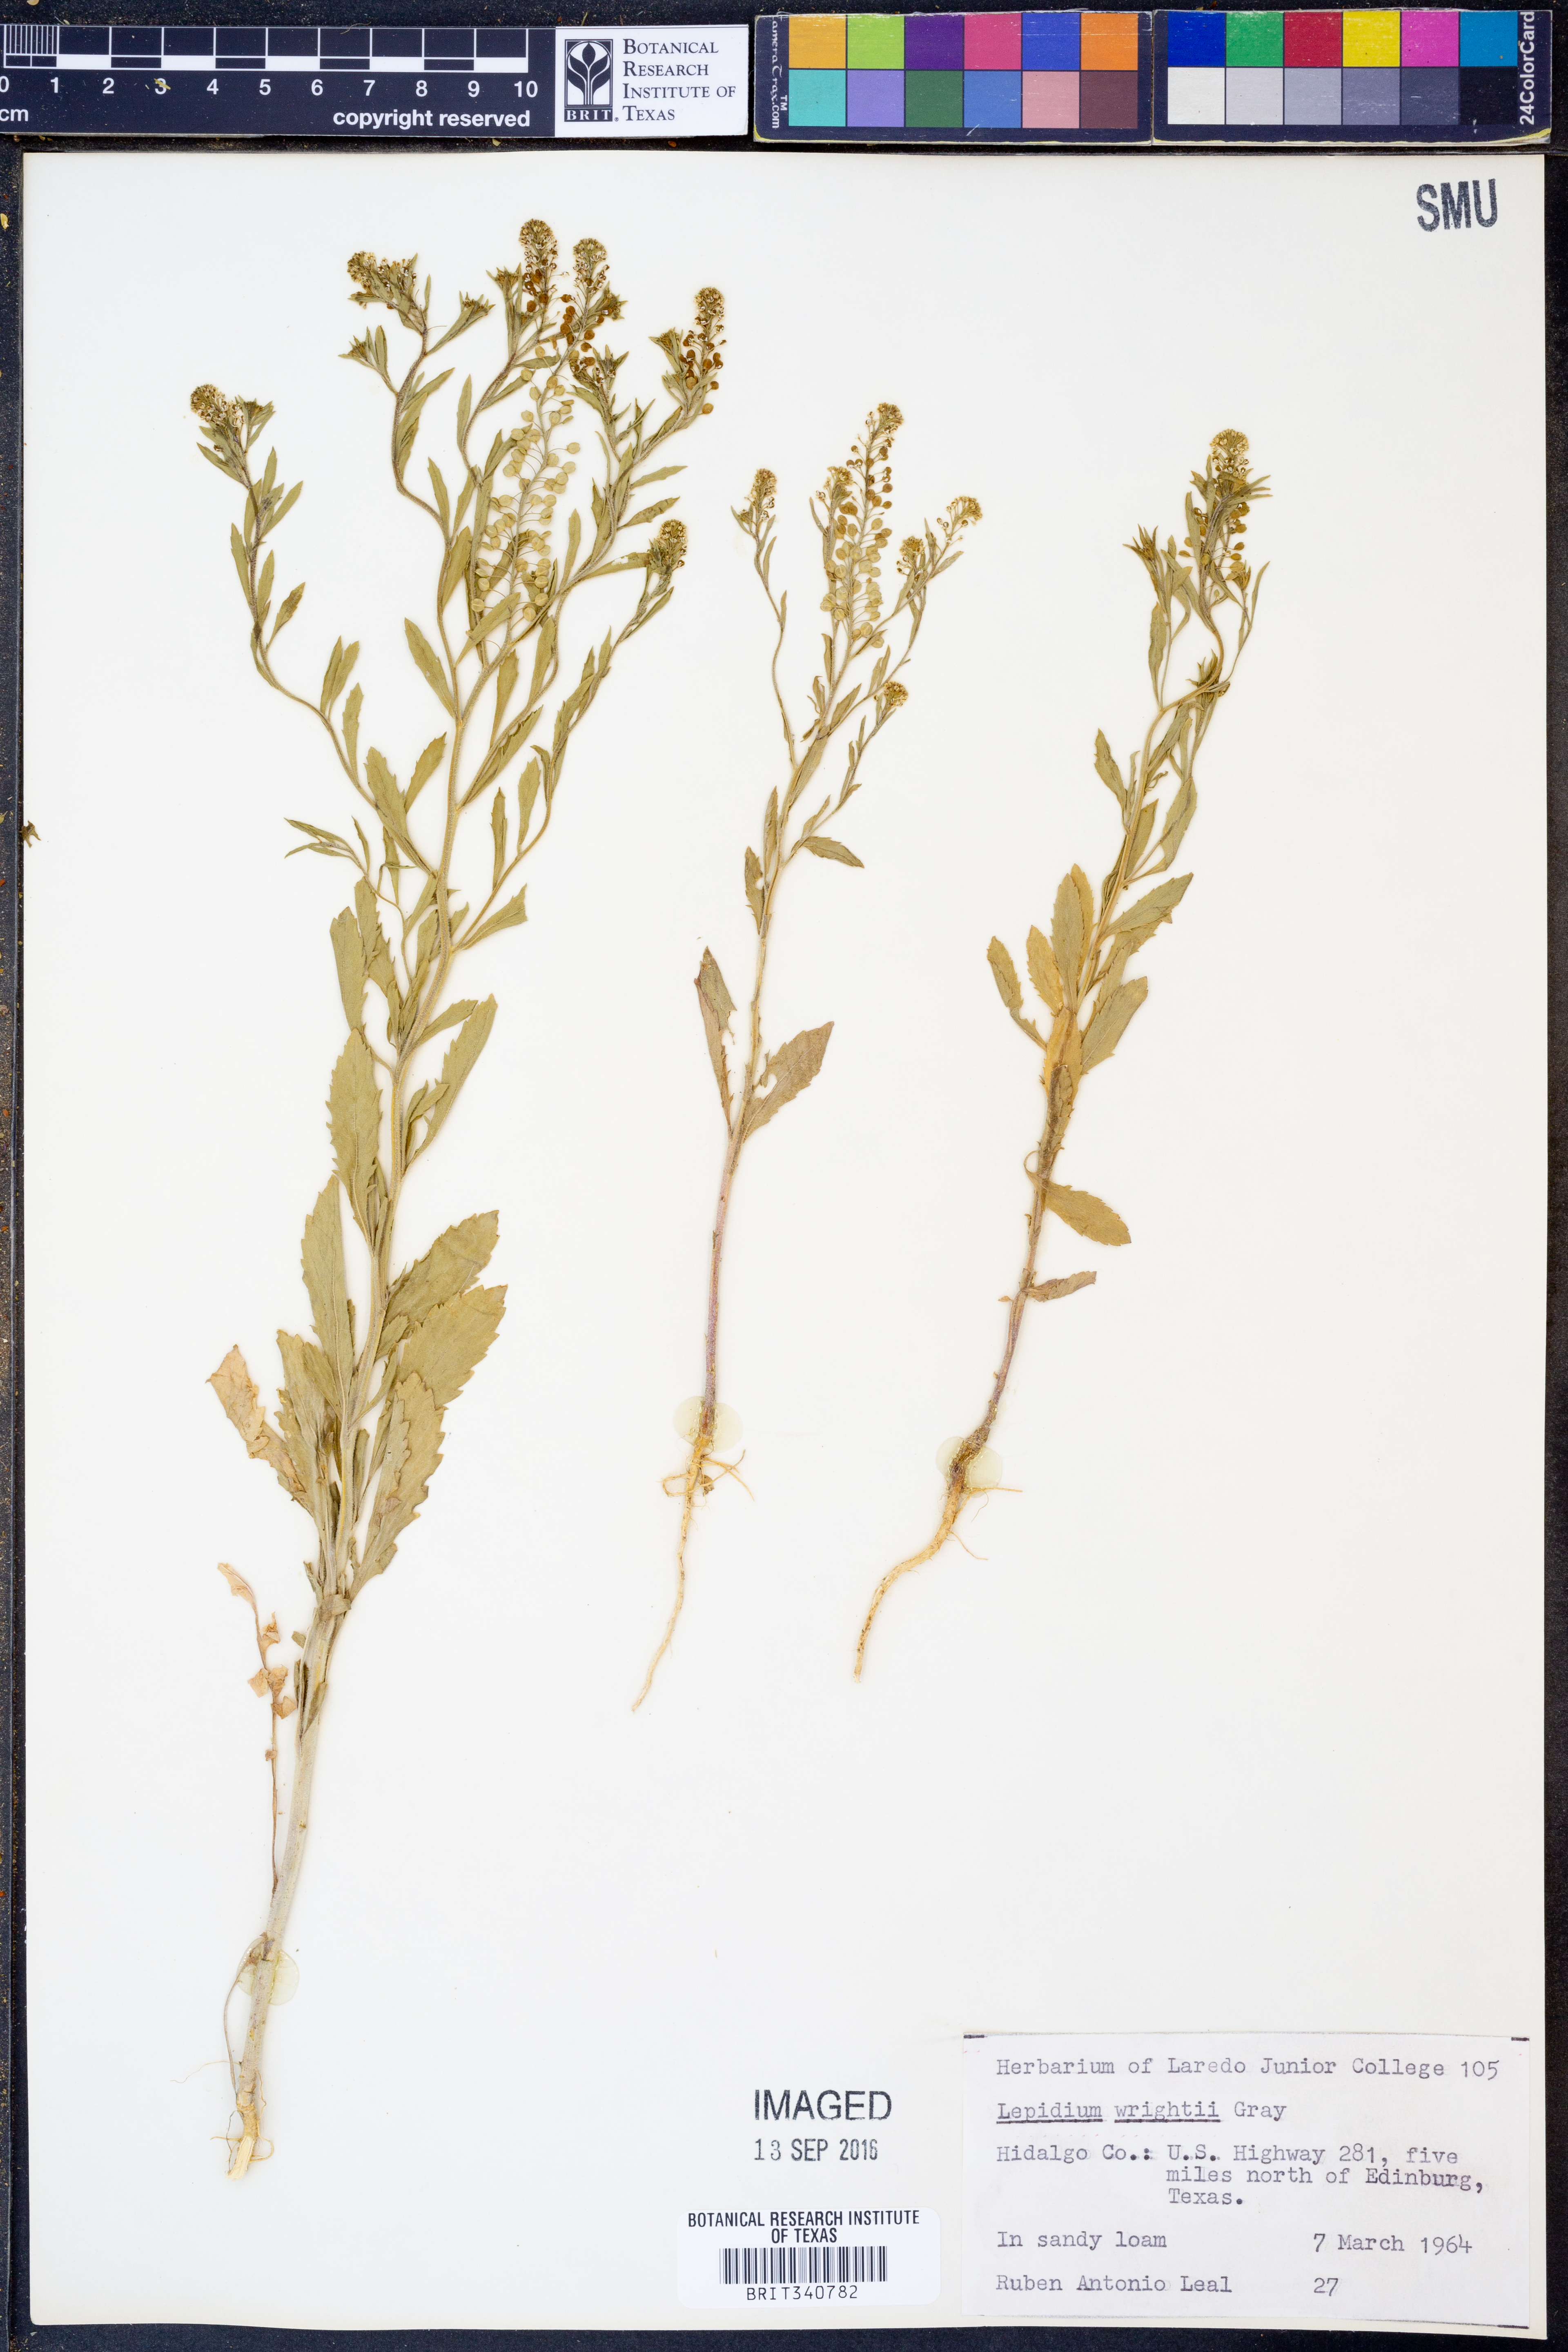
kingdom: Plantae
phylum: Tracheophyta
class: Magnoliopsida
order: Brassicales
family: Brassicaceae
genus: Lepidium
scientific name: Lepidium lasiocarpum
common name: Hairy-pod pepperwort
